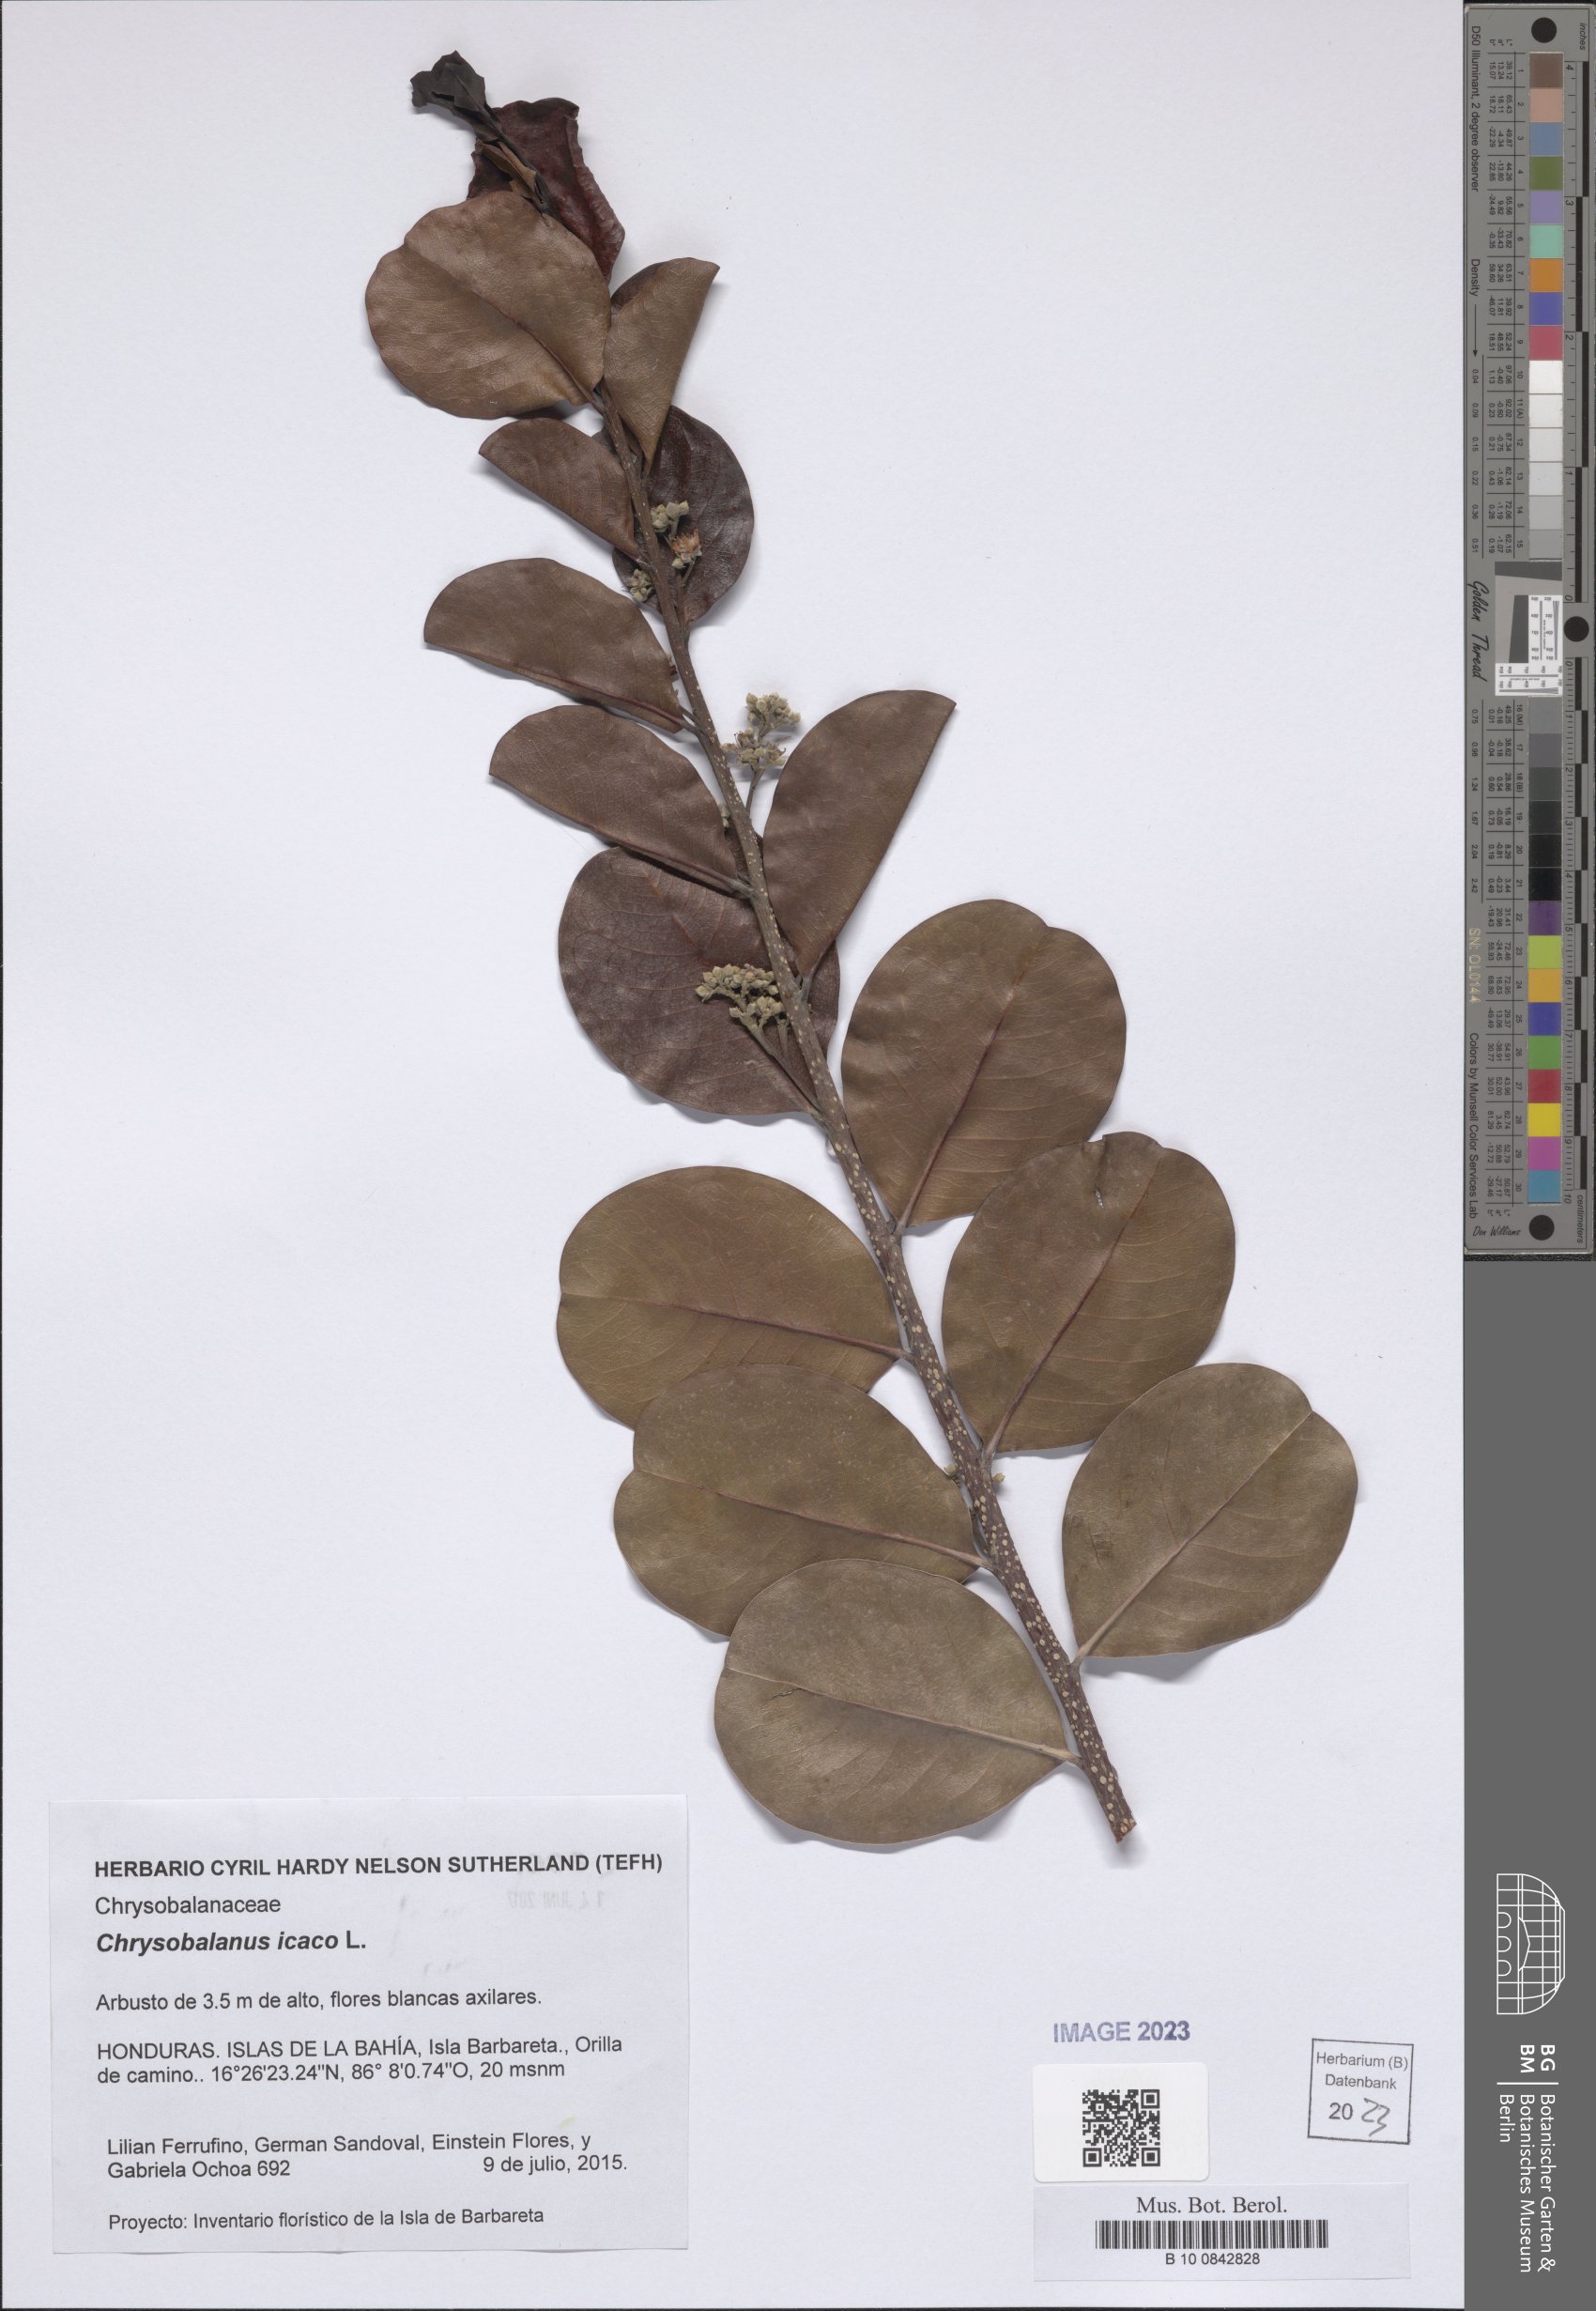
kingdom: Plantae
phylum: Tracheophyta
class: Magnoliopsida
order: Malpighiales
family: Chrysobalanaceae
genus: Chrysobalanus
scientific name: Chrysobalanus icaco
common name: Coco plum
